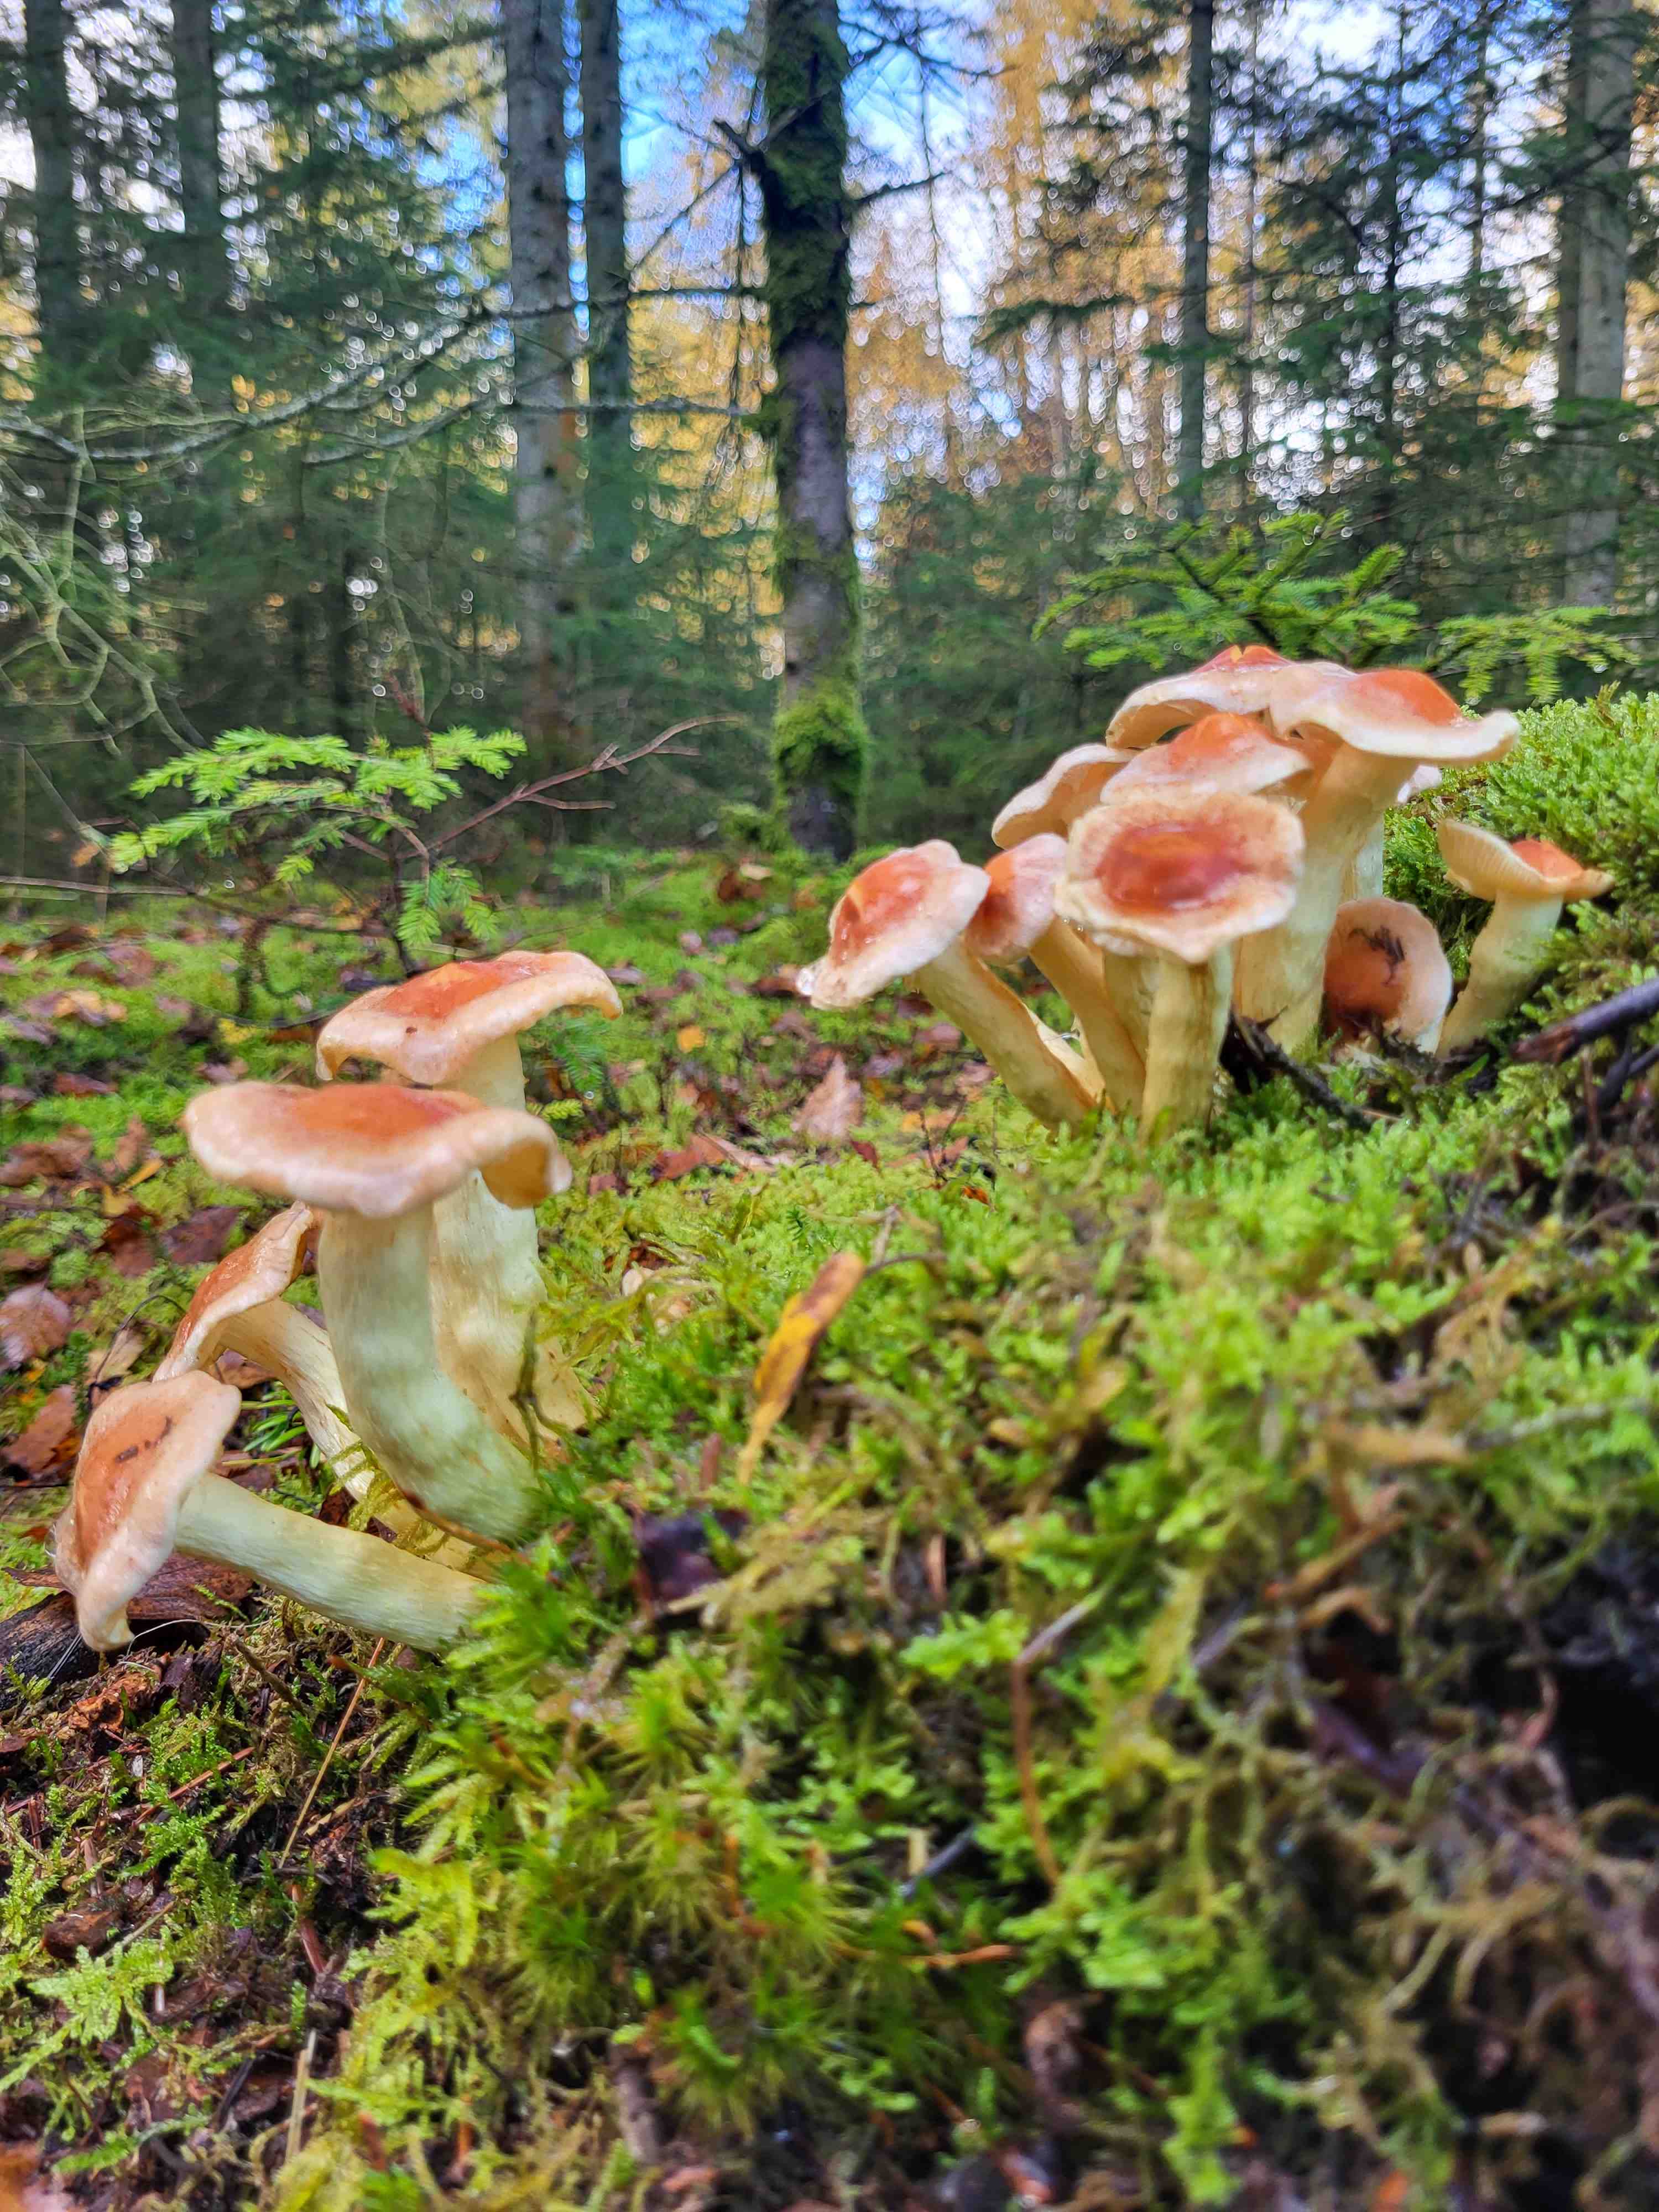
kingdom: Fungi
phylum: Basidiomycota
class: Agaricomycetes
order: Agaricales
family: Strophariaceae
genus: Hypholoma
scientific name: Hypholoma
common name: svovlhat
